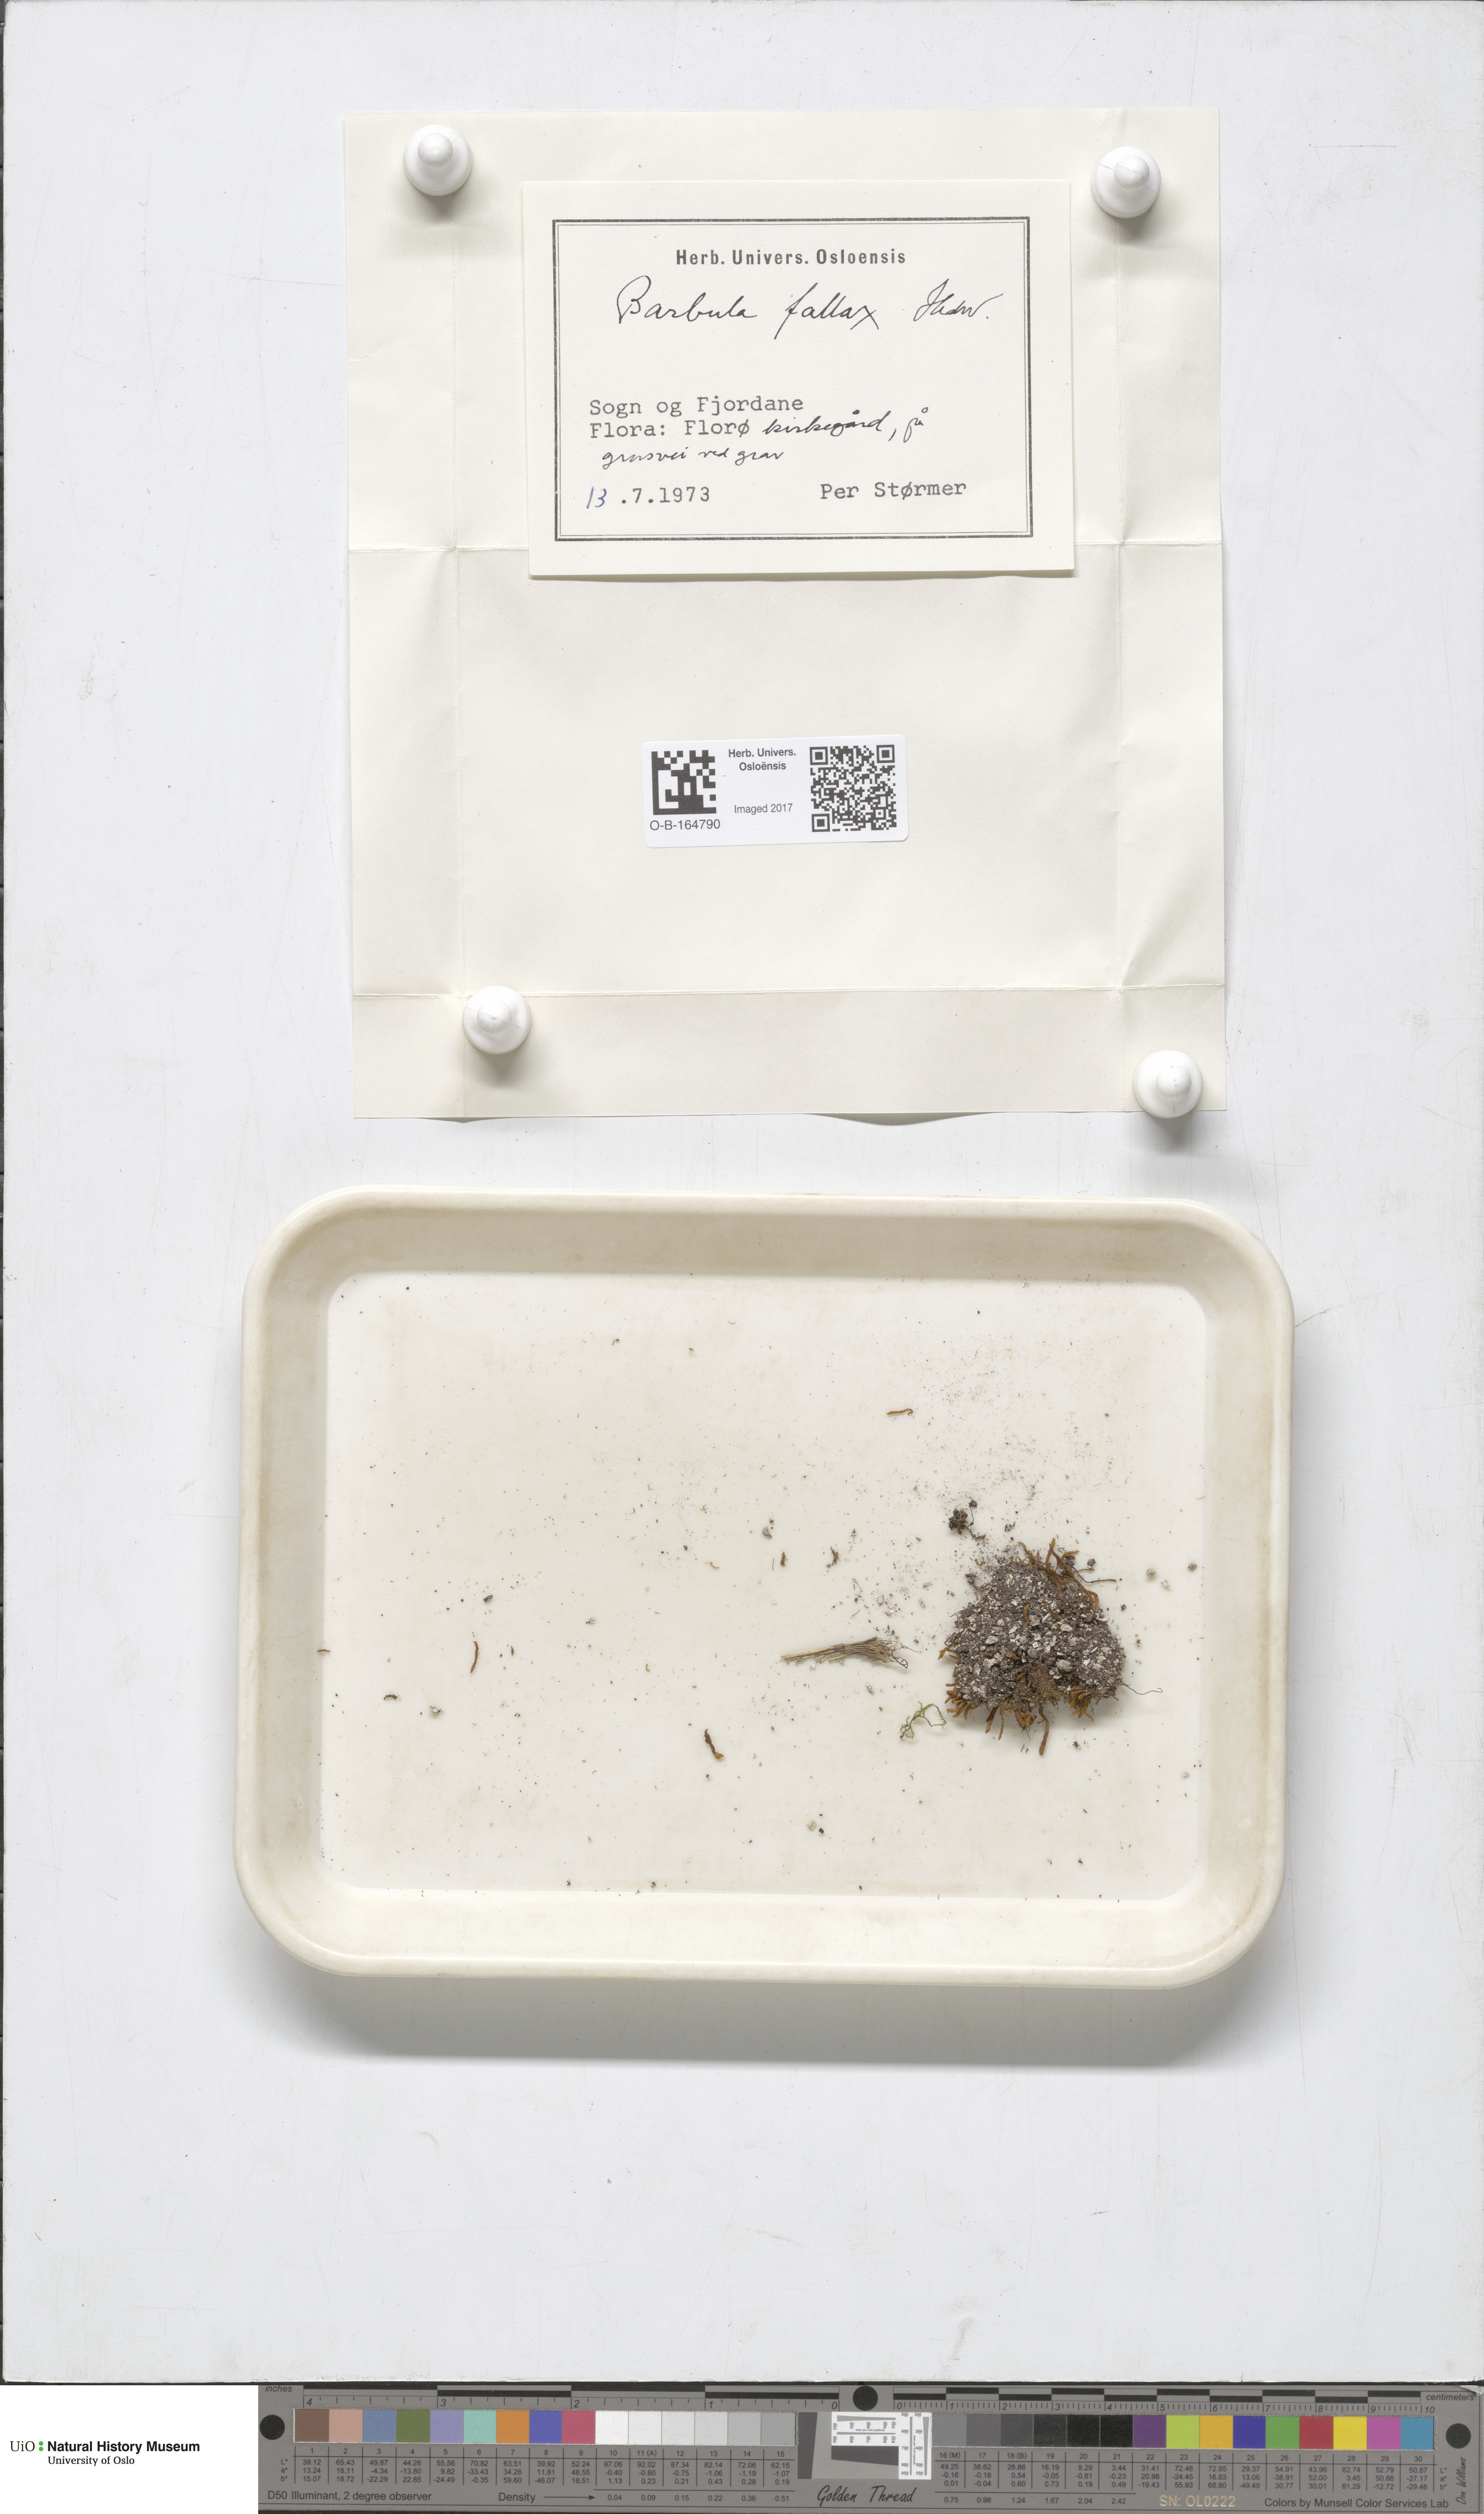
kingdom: Plantae
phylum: Bryophyta
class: Bryopsida
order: Pottiales
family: Pottiaceae
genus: Geheebia
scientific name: Geheebia fallax
